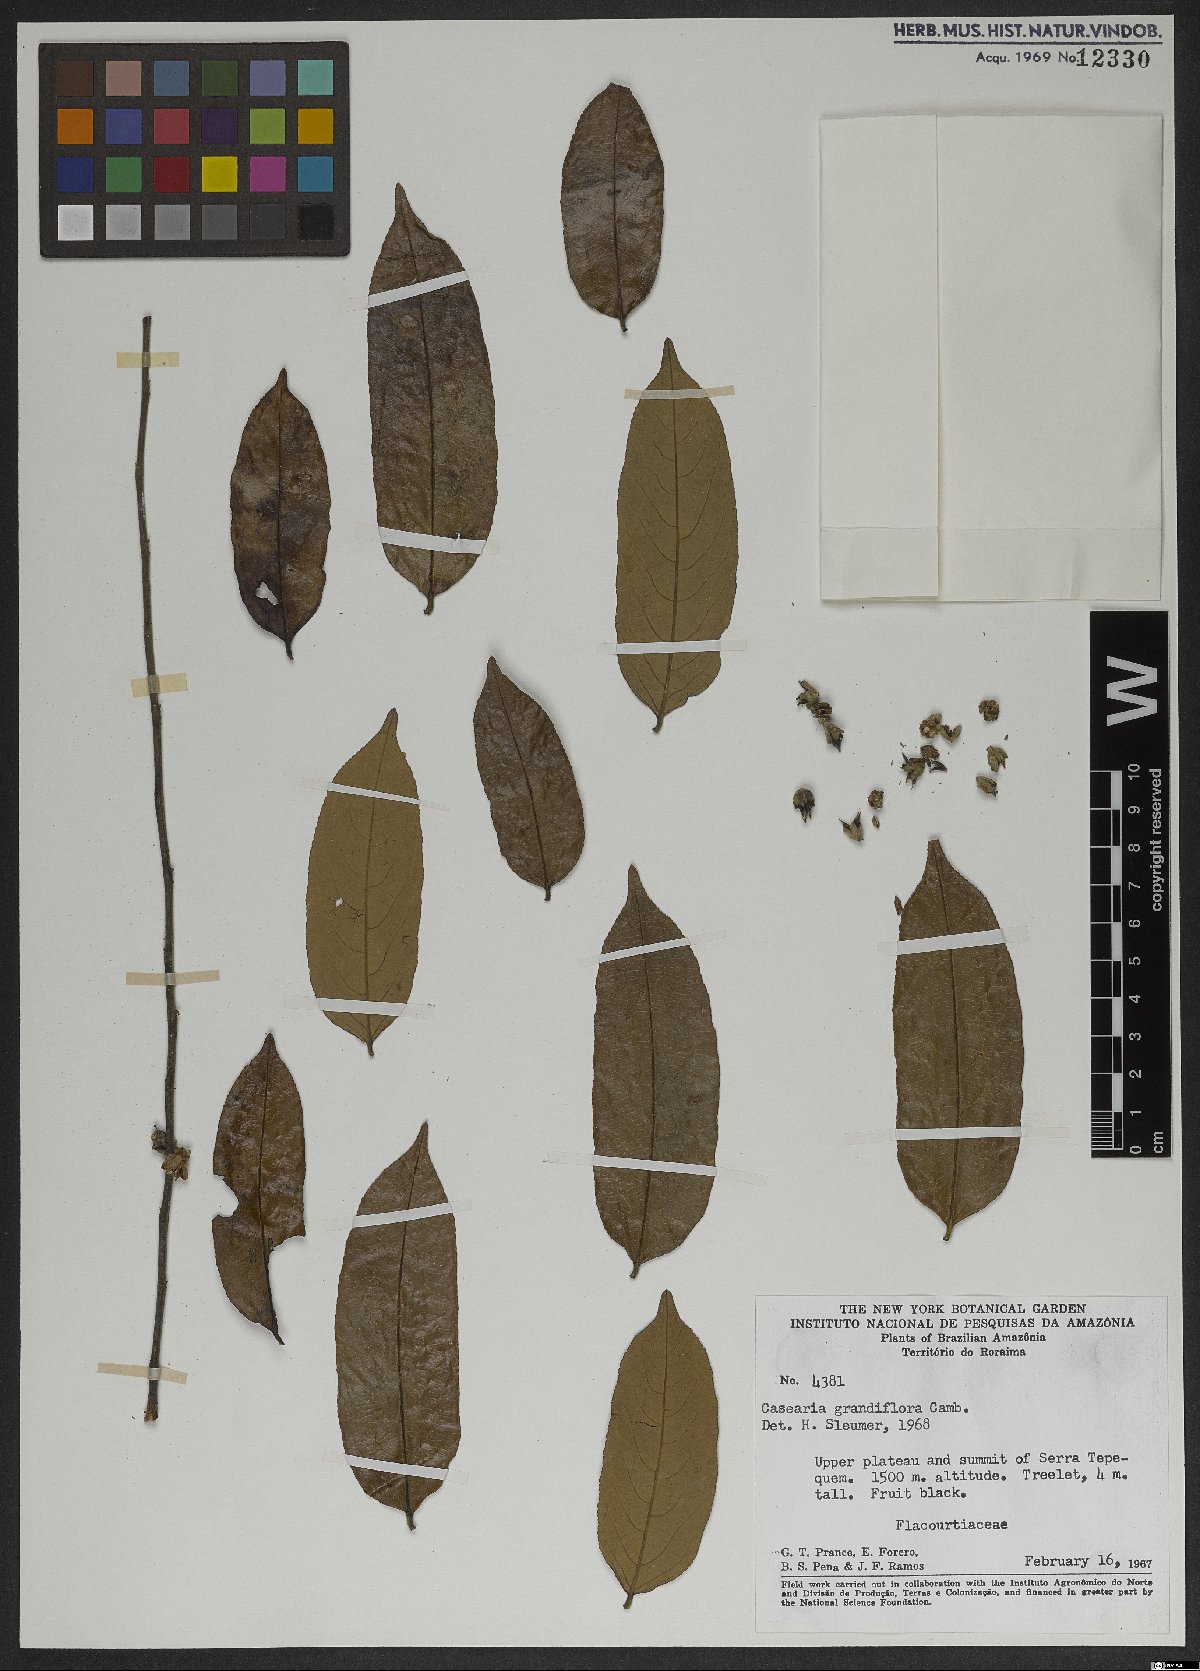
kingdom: Plantae
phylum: Tracheophyta
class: Magnoliopsida
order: Malpighiales
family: Salicaceae
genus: Casearia
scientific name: Casearia grandiflora
